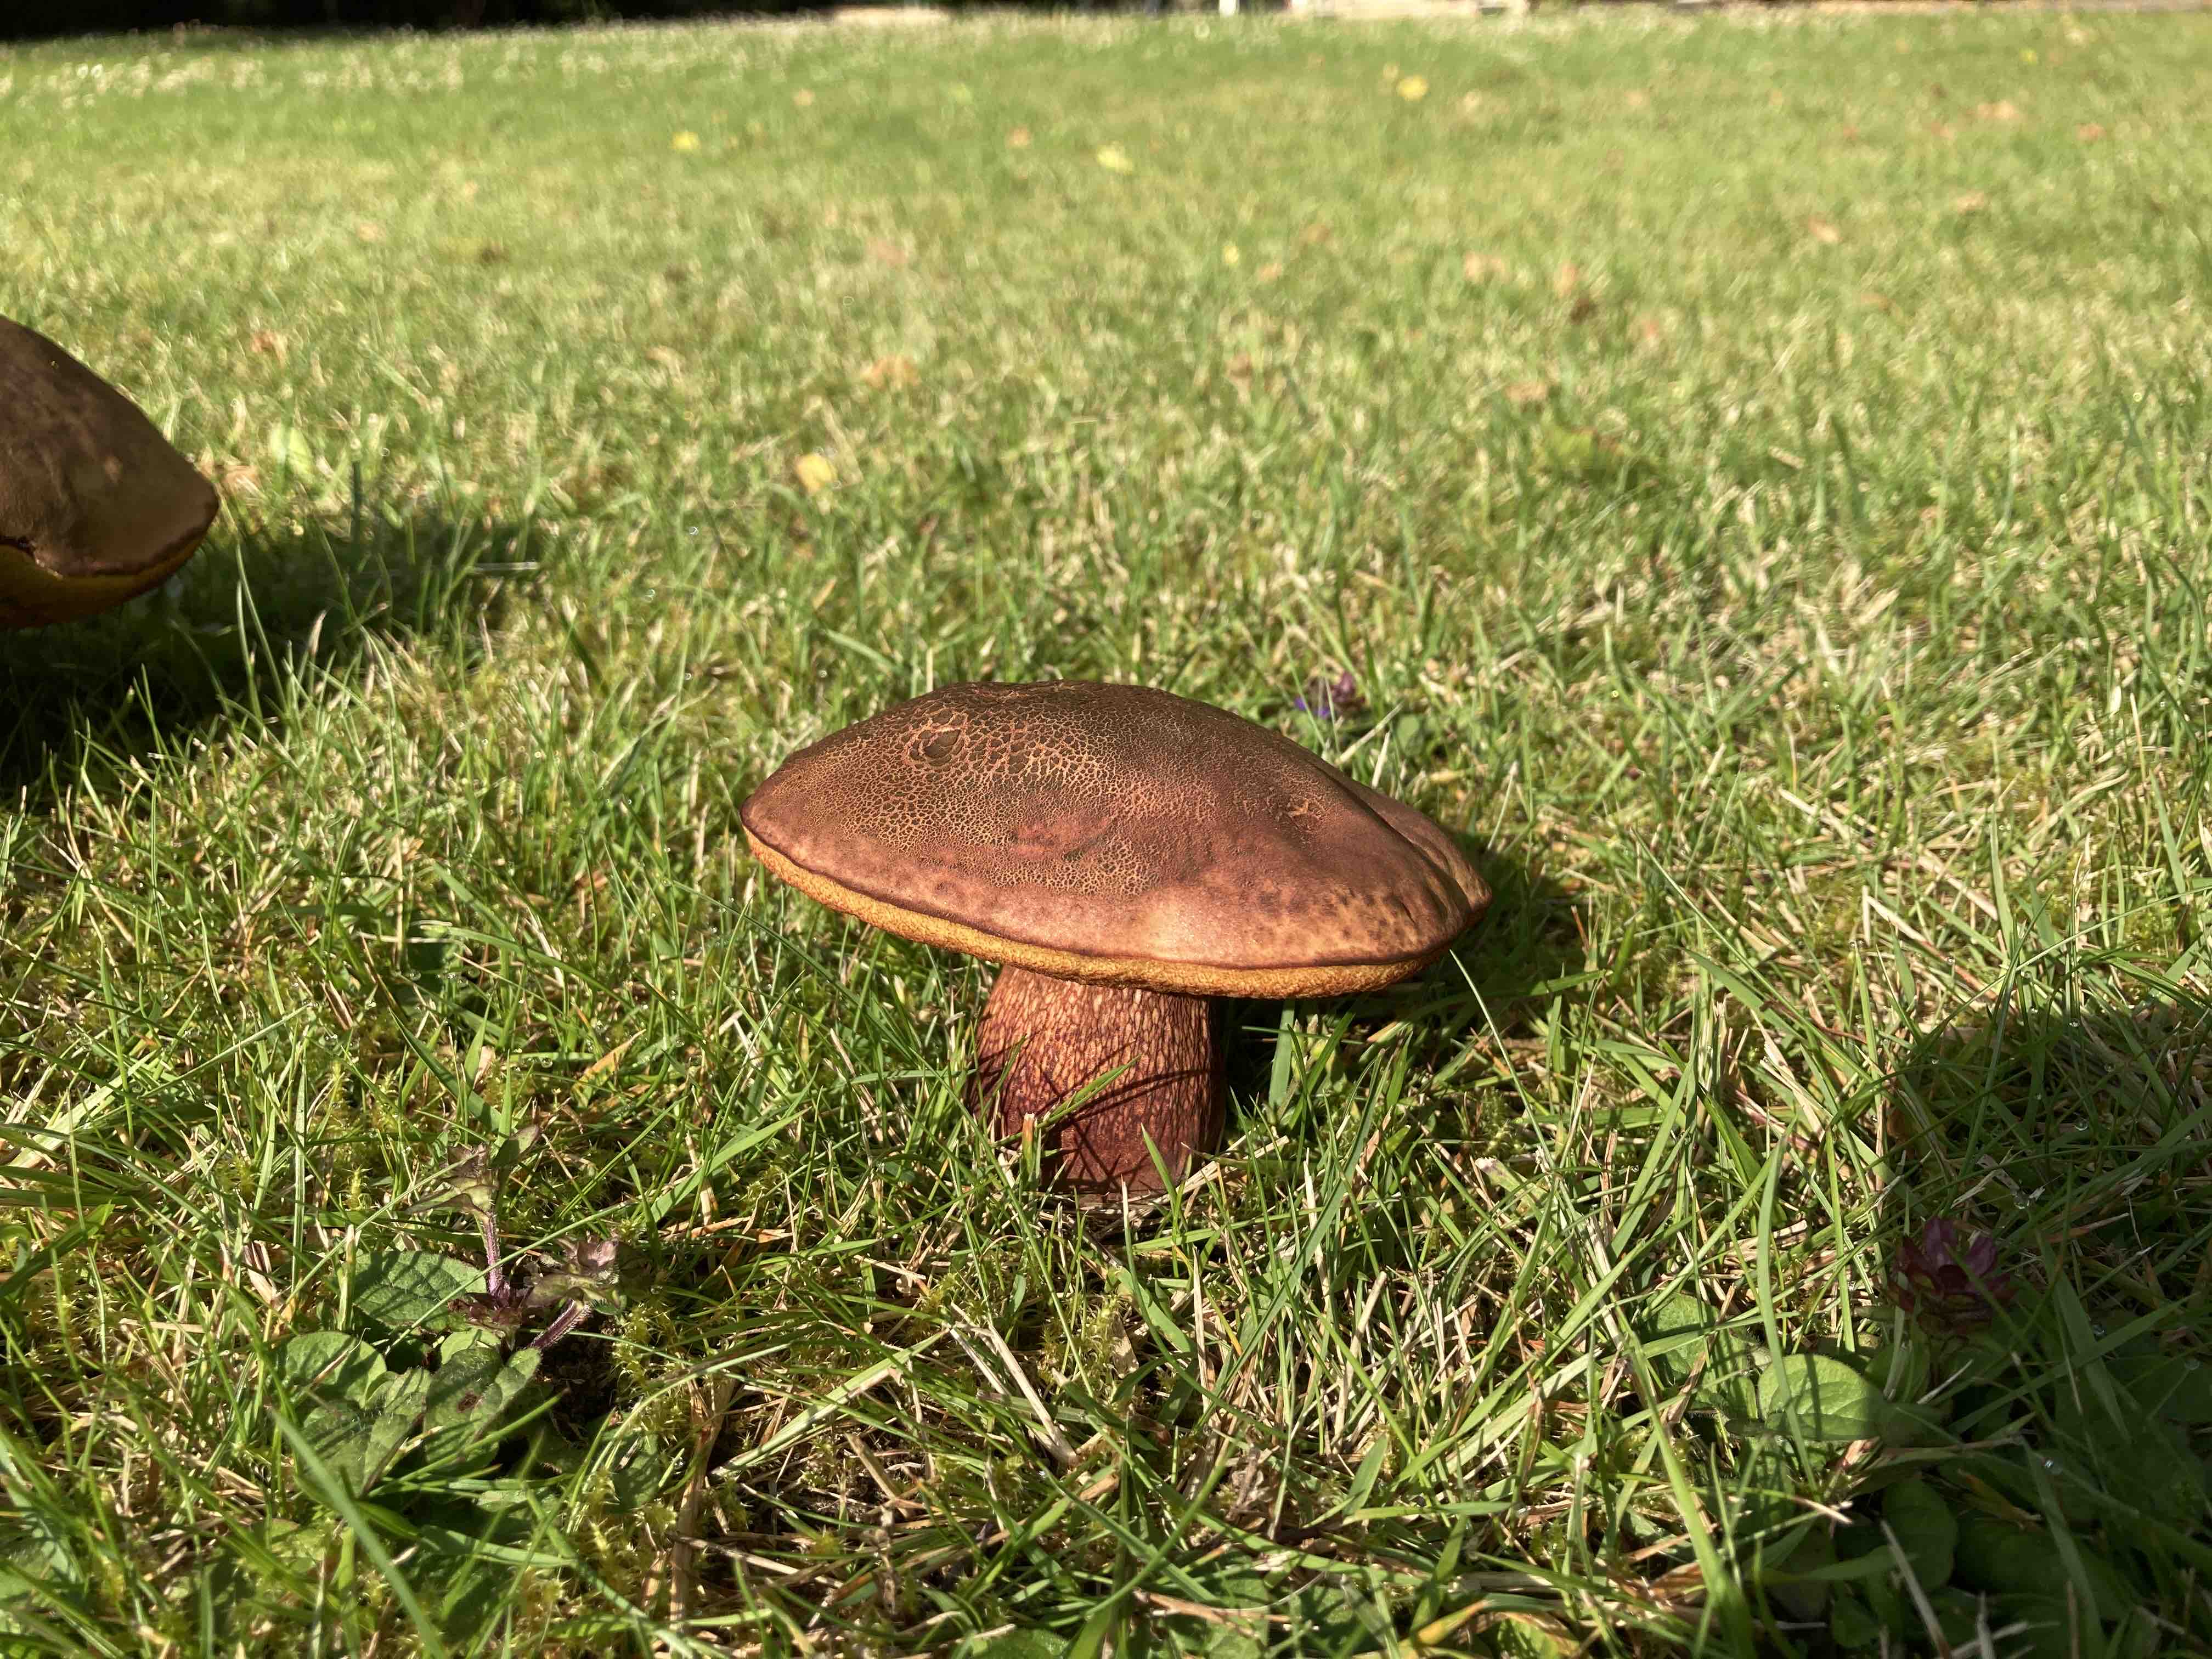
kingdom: Fungi
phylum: Basidiomycota
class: Agaricomycetes
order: Boletales
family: Boletaceae
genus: Suillellus
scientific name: Suillellus luridus
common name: netstokket indigorørhat
